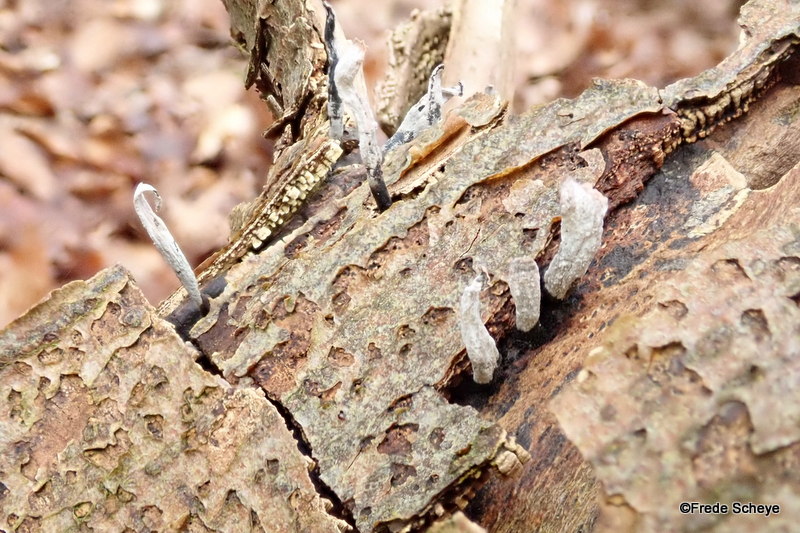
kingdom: Fungi
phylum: Ascomycota
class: Sordariomycetes
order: Xylariales
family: Xylariaceae
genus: Xylaria
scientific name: Xylaria hypoxylon
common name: grenet stødsvamp
